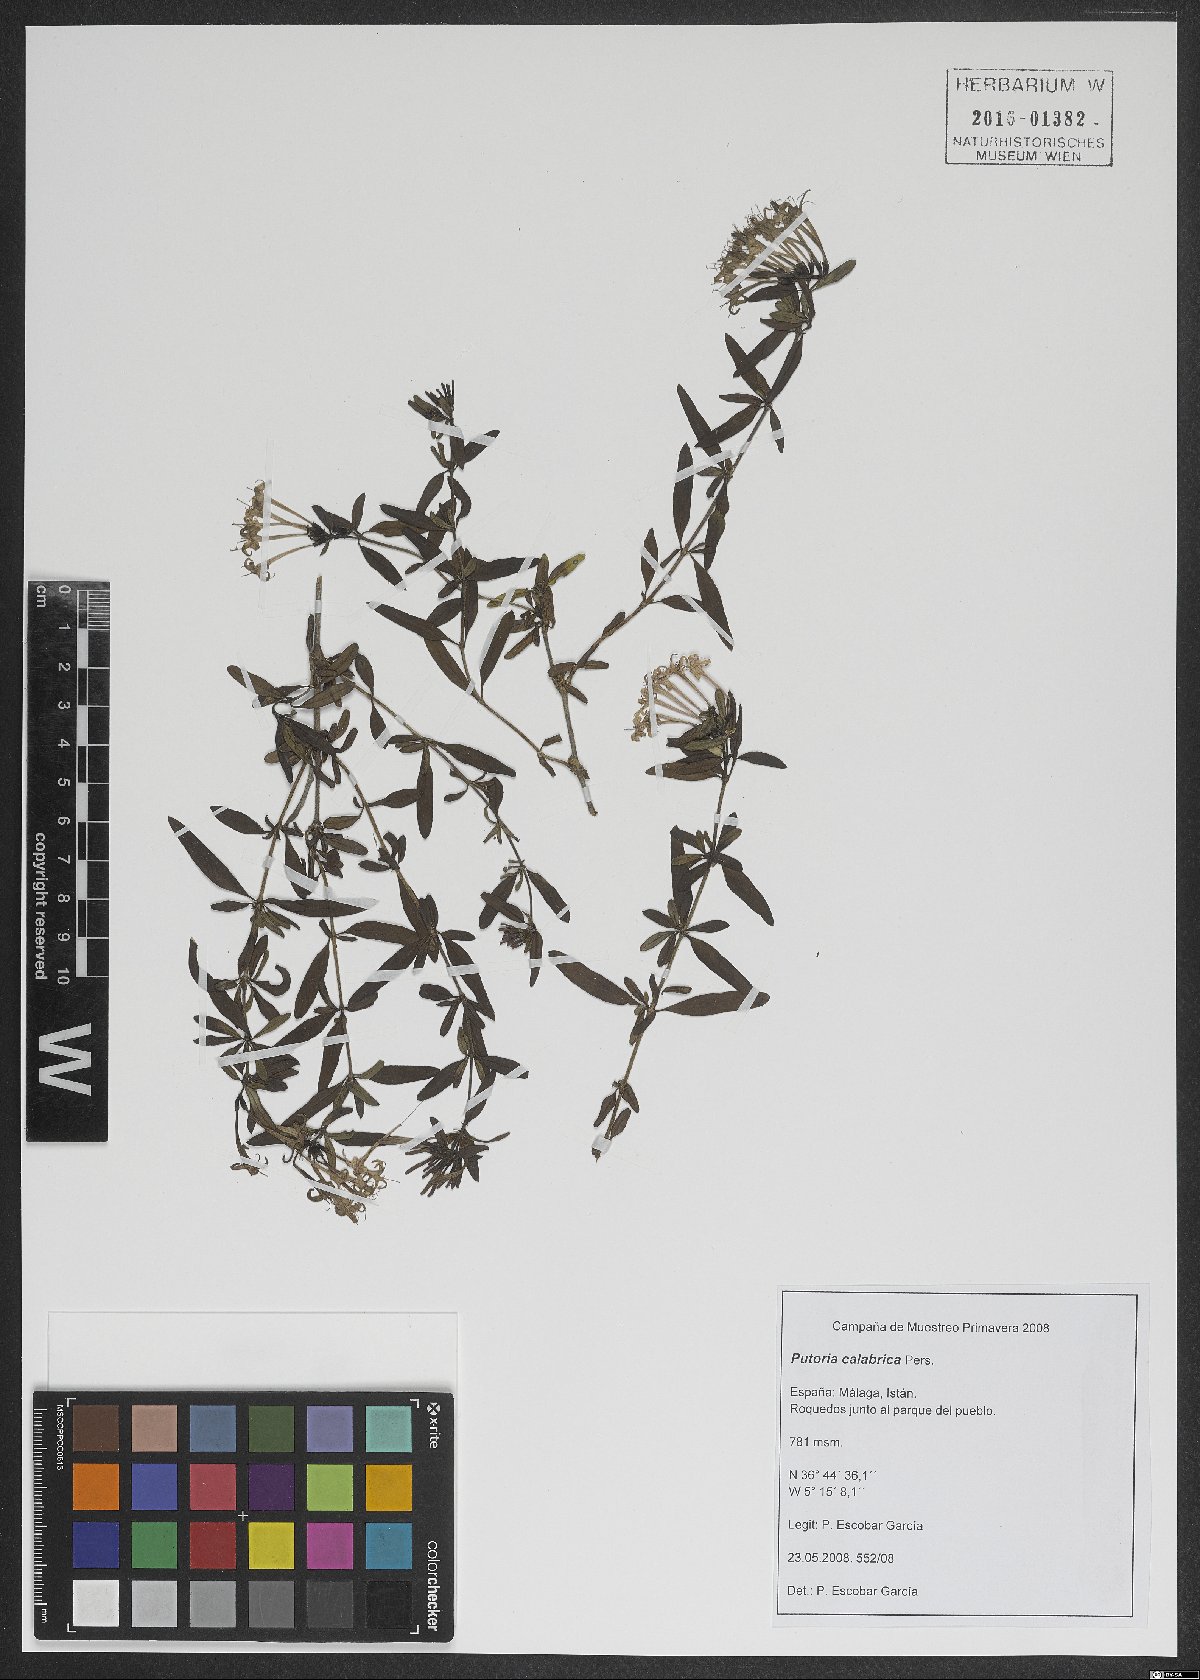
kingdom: Plantae
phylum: Tracheophyta
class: Magnoliopsida
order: Gentianales
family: Rubiaceae
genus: Plocama
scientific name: Plocama calabrica
